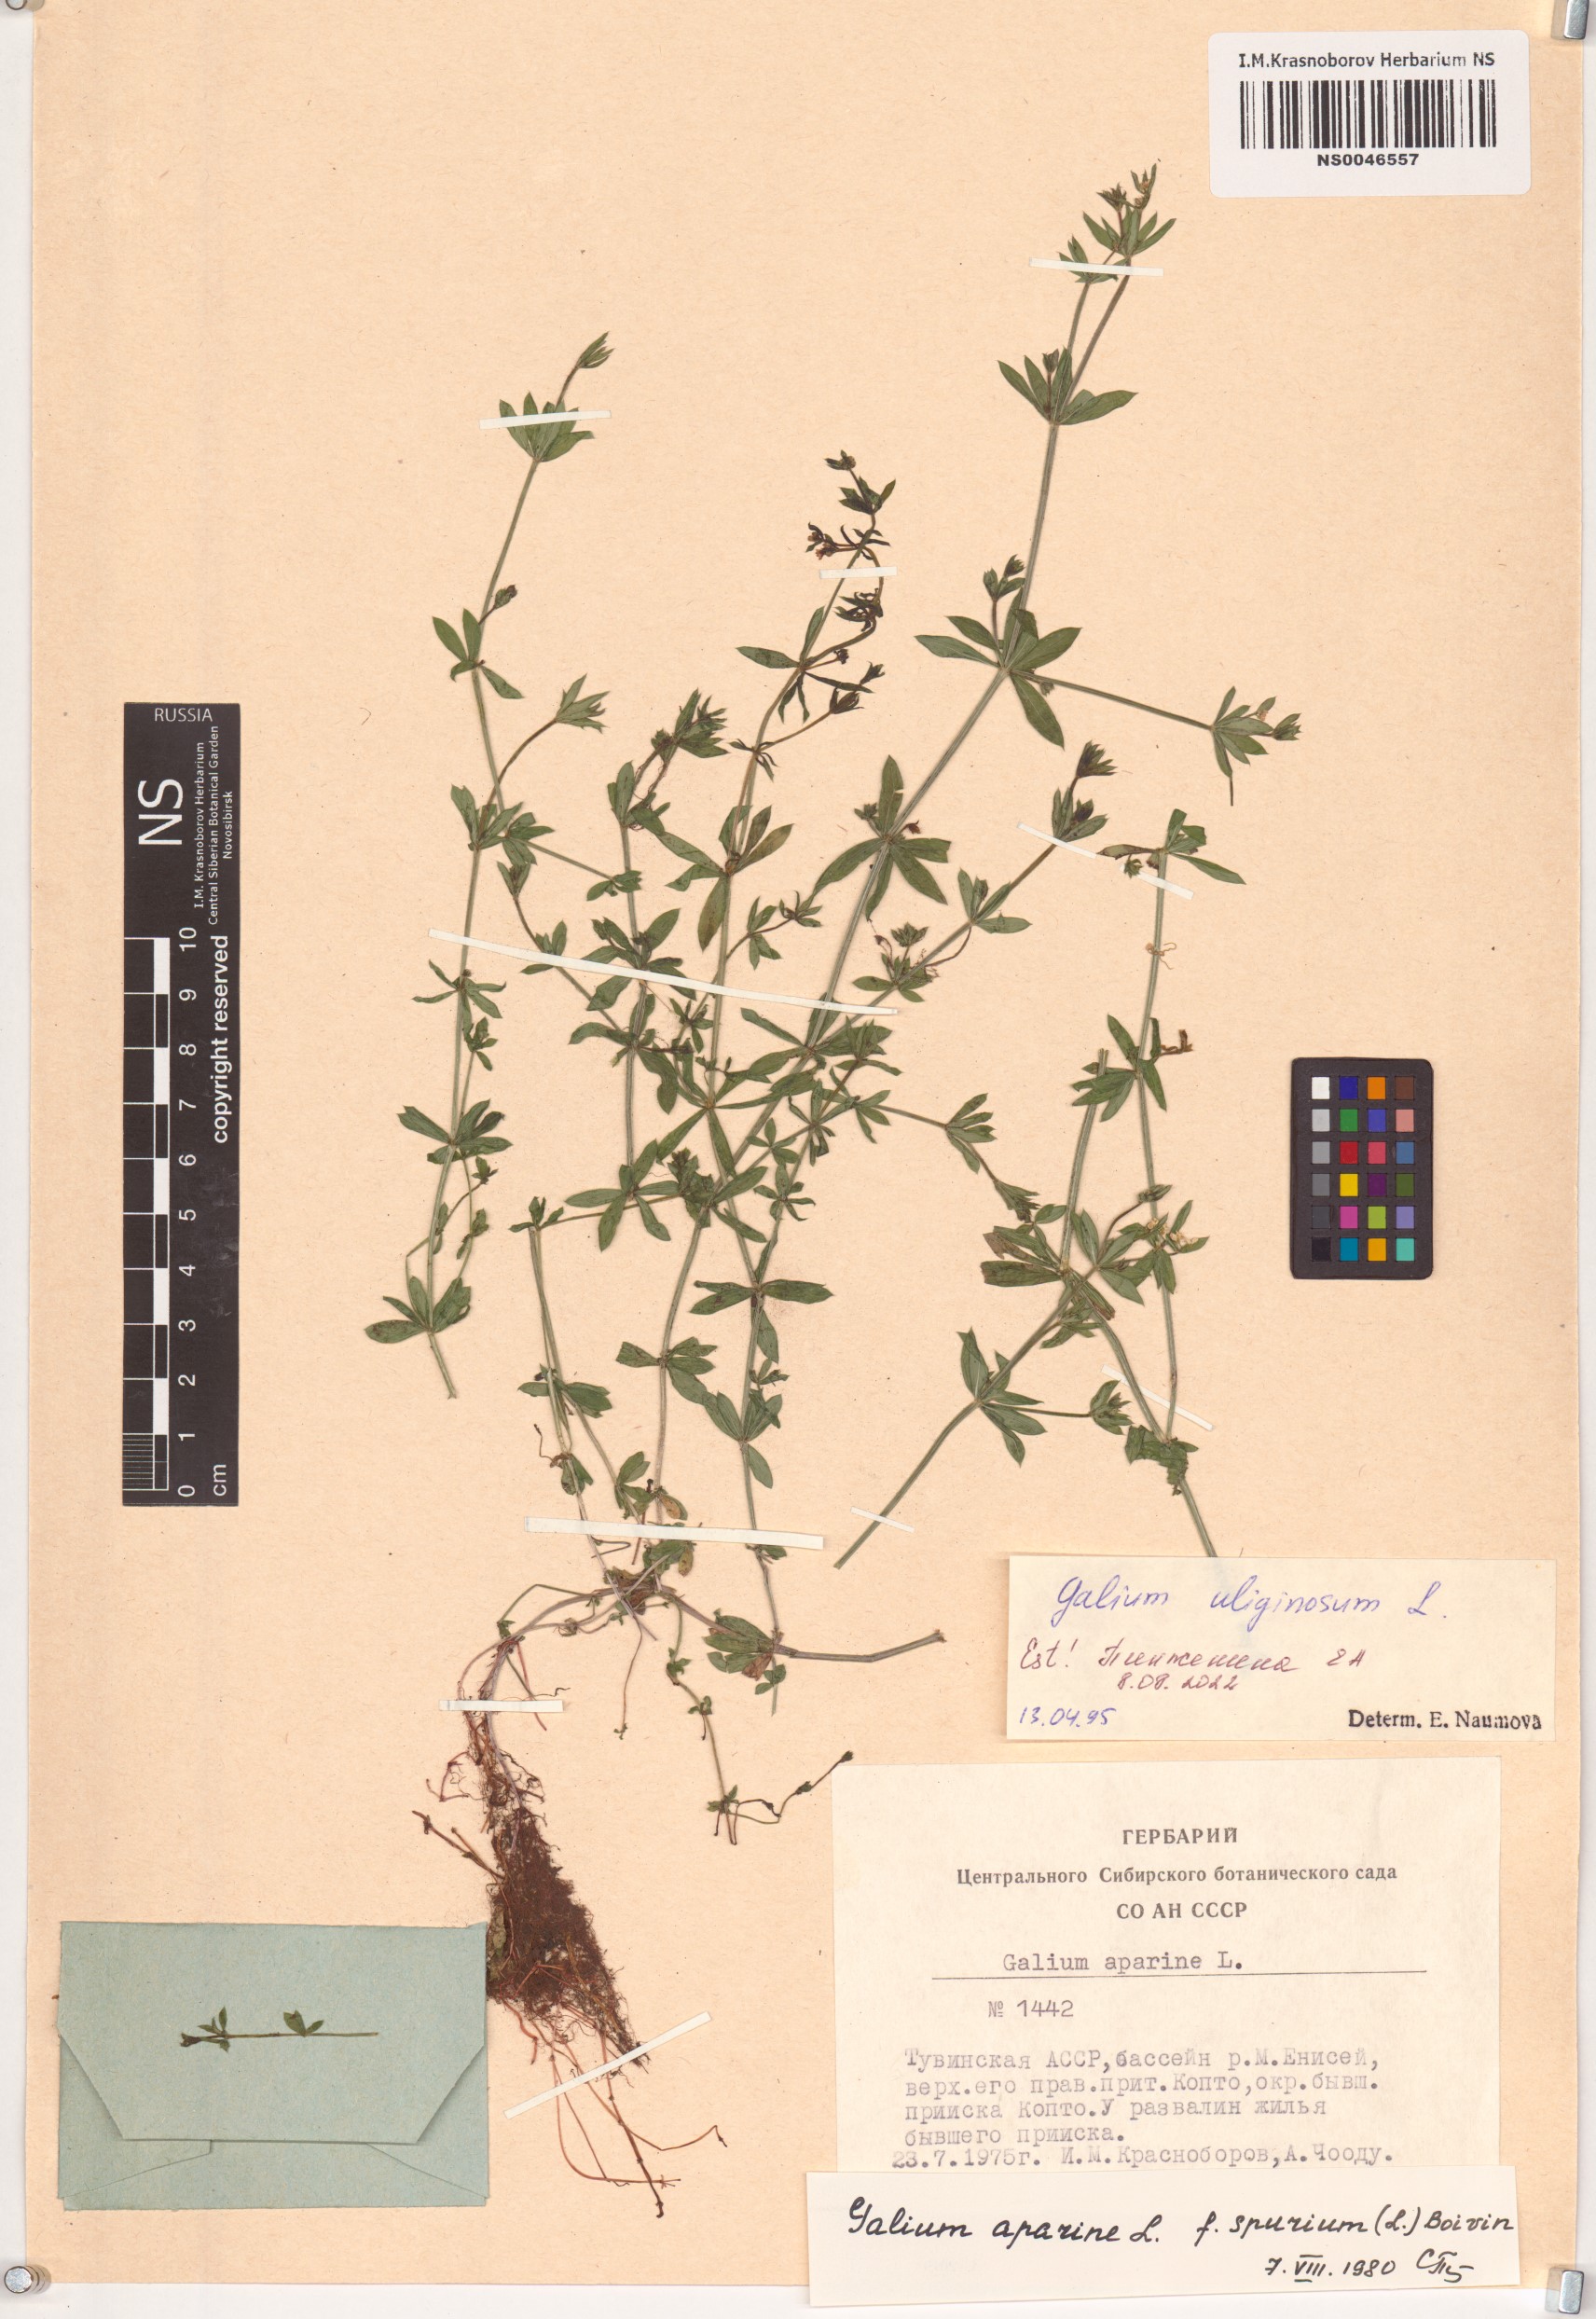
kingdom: Plantae
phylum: Tracheophyta
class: Magnoliopsida
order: Gentianales
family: Rubiaceae
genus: Galium
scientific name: Galium uliginosum
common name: Fen bedstraw
